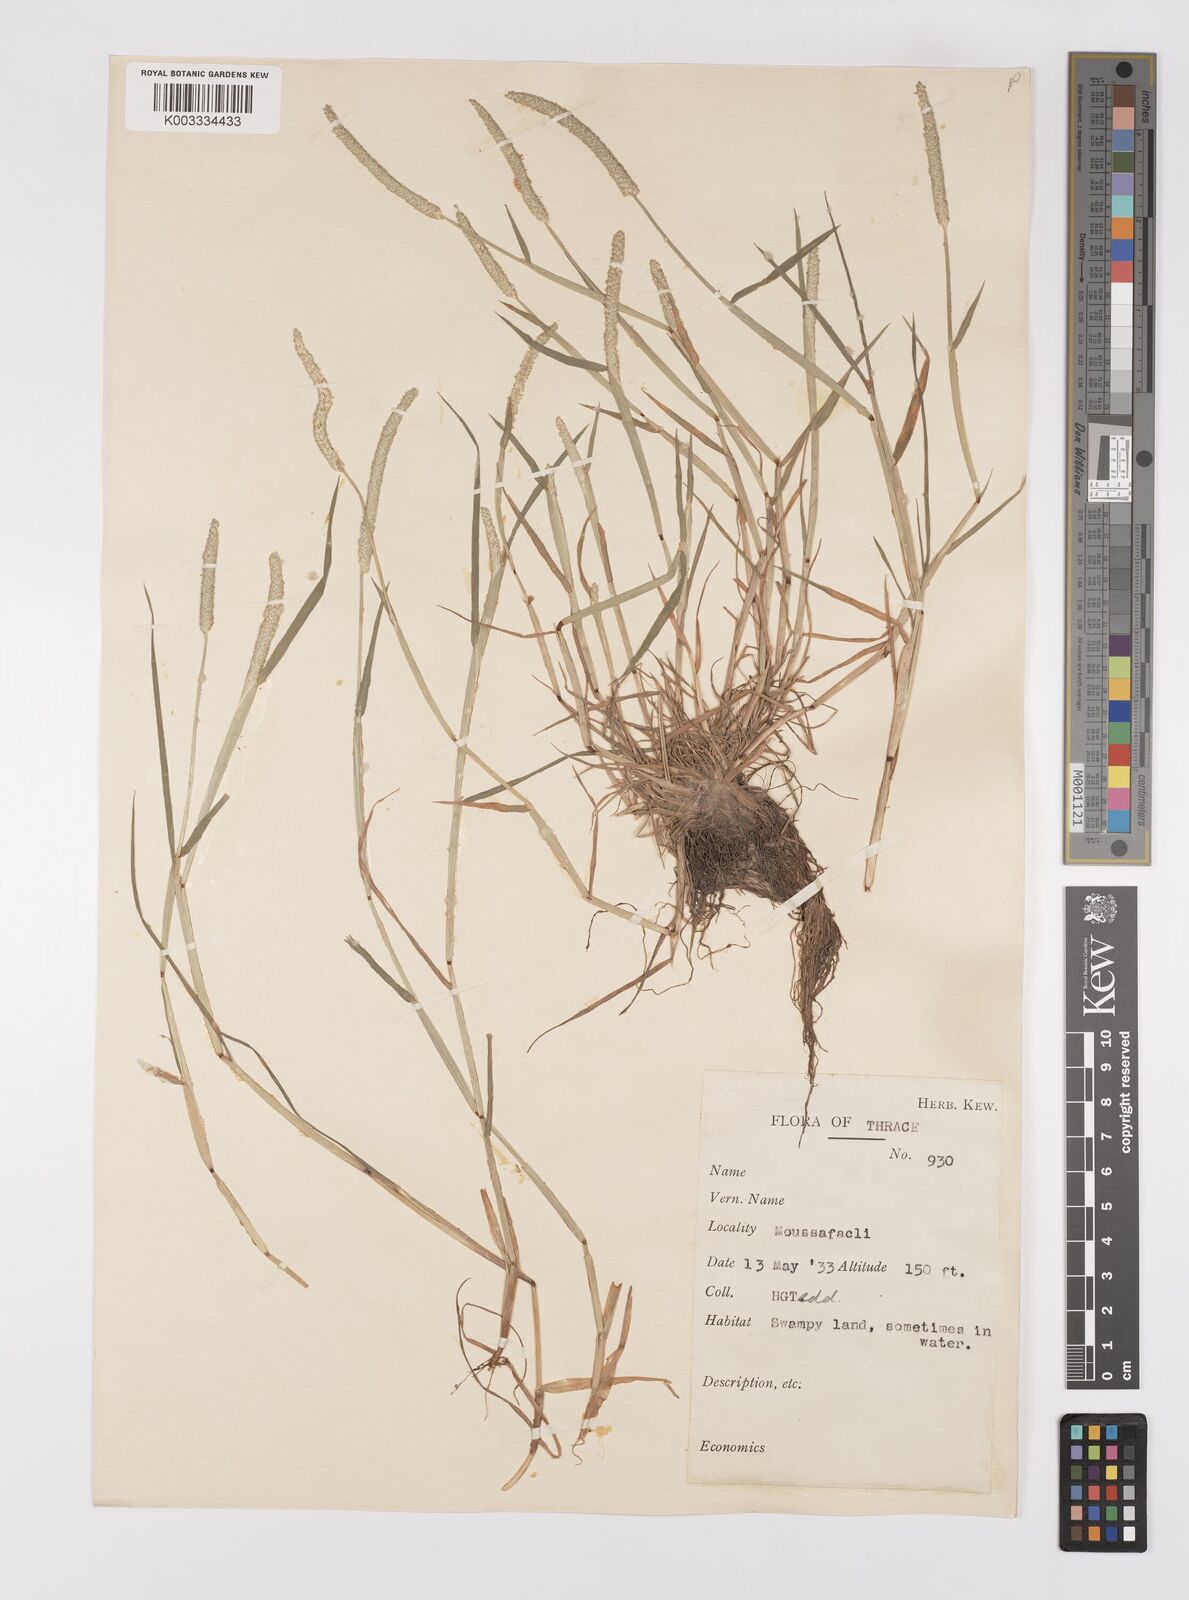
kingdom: Plantae
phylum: Tracheophyta
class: Liliopsida
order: Poales
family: Poaceae
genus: Alopecurus
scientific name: Alopecurus aequalis
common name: Orange foxtail
